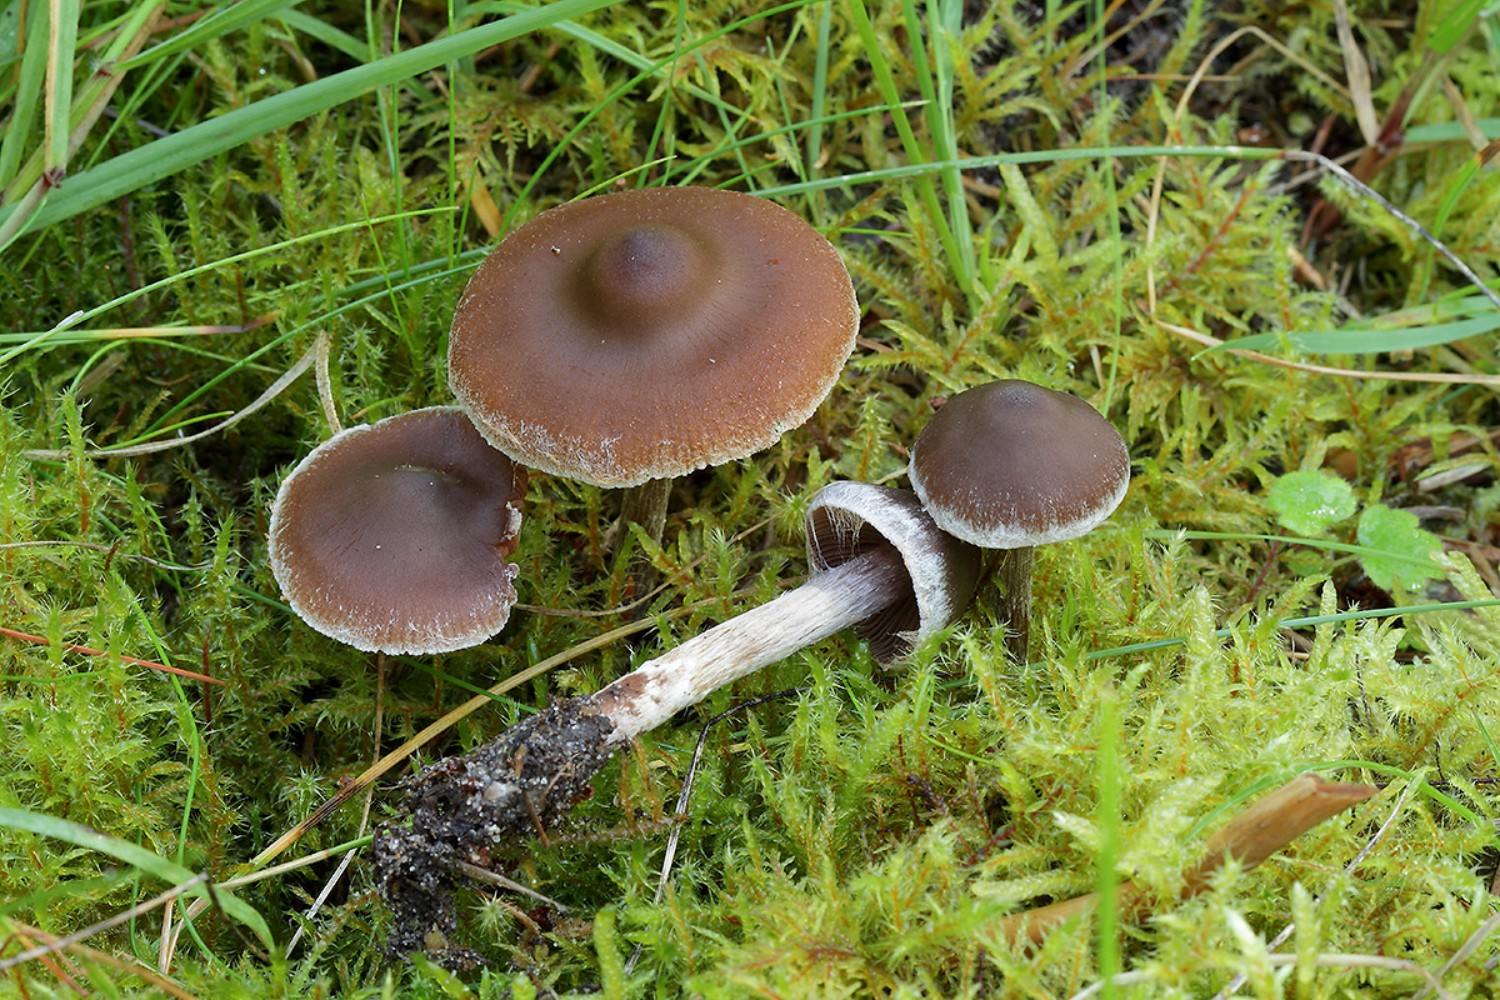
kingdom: Fungi
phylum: Basidiomycota
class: Agaricomycetes
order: Agaricales
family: Cortinariaceae
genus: Cortinarius
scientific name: Cortinarius
